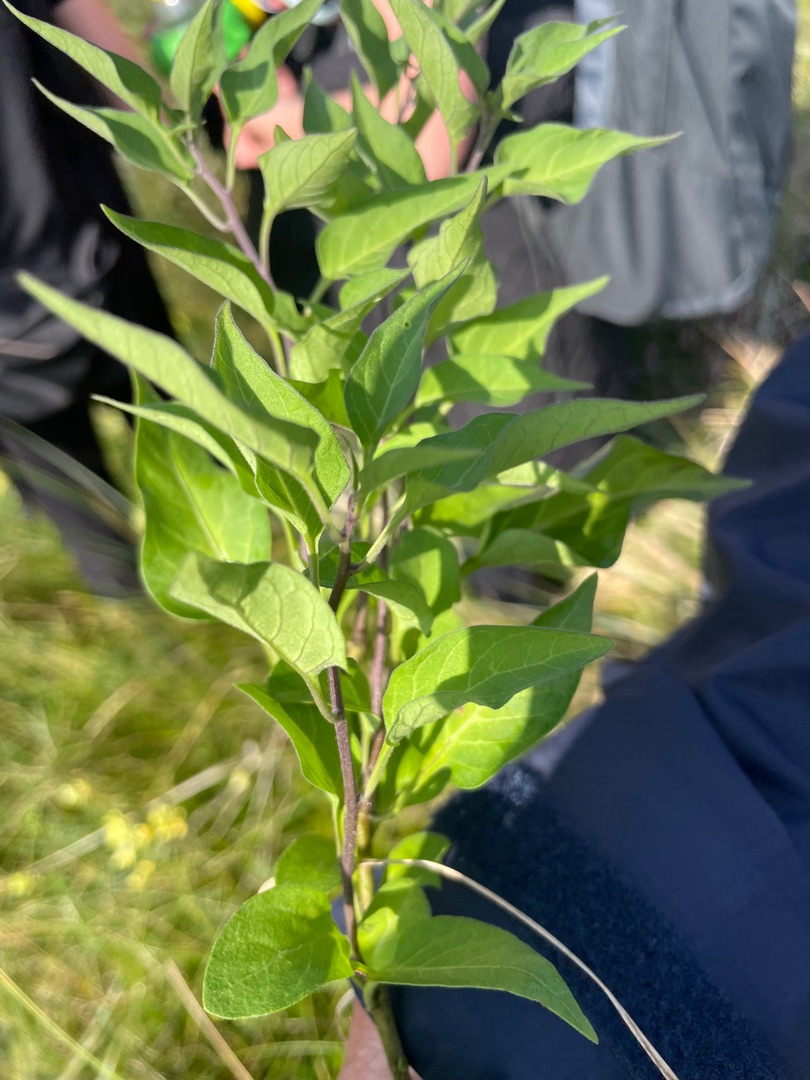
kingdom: Plantae
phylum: Tracheophyta
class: Magnoliopsida
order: Solanales
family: Solanaceae
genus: Solanum
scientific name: Solanum dulcamara
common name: Bittersød natskygge
